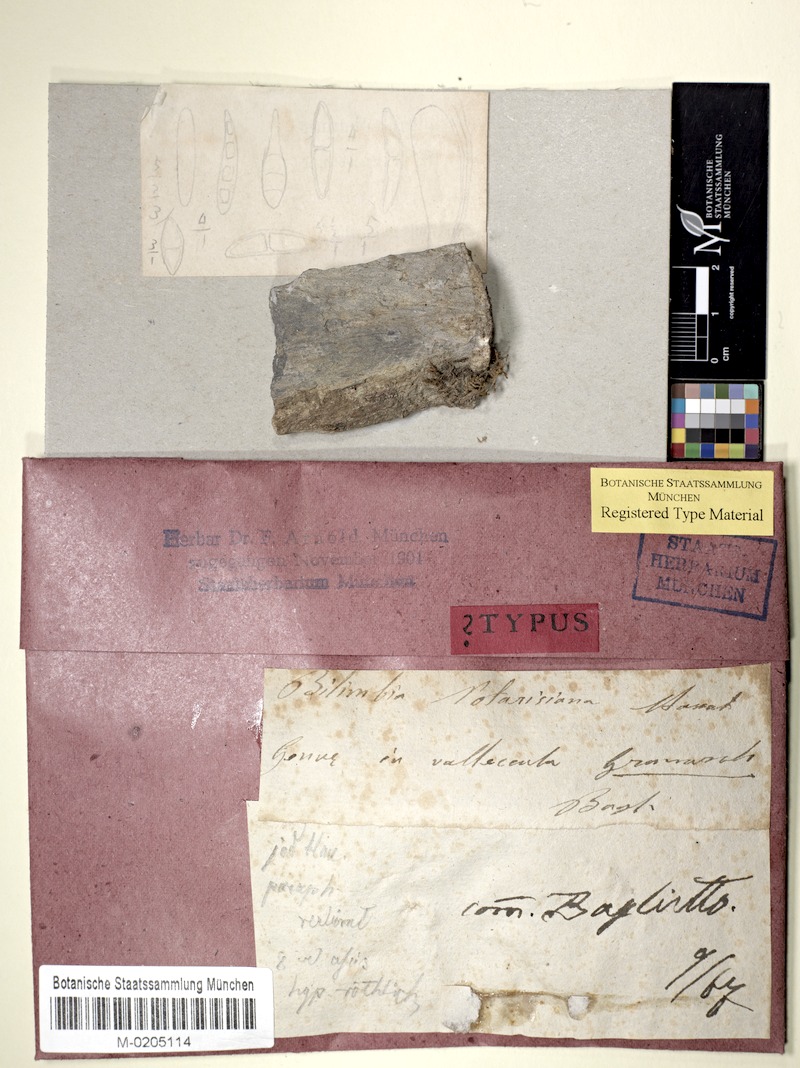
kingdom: Fungi
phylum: Ascomycota
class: Lecanoromycetes
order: Lecanorales
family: Ramalinaceae
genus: Bacidia
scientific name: Bacidia
